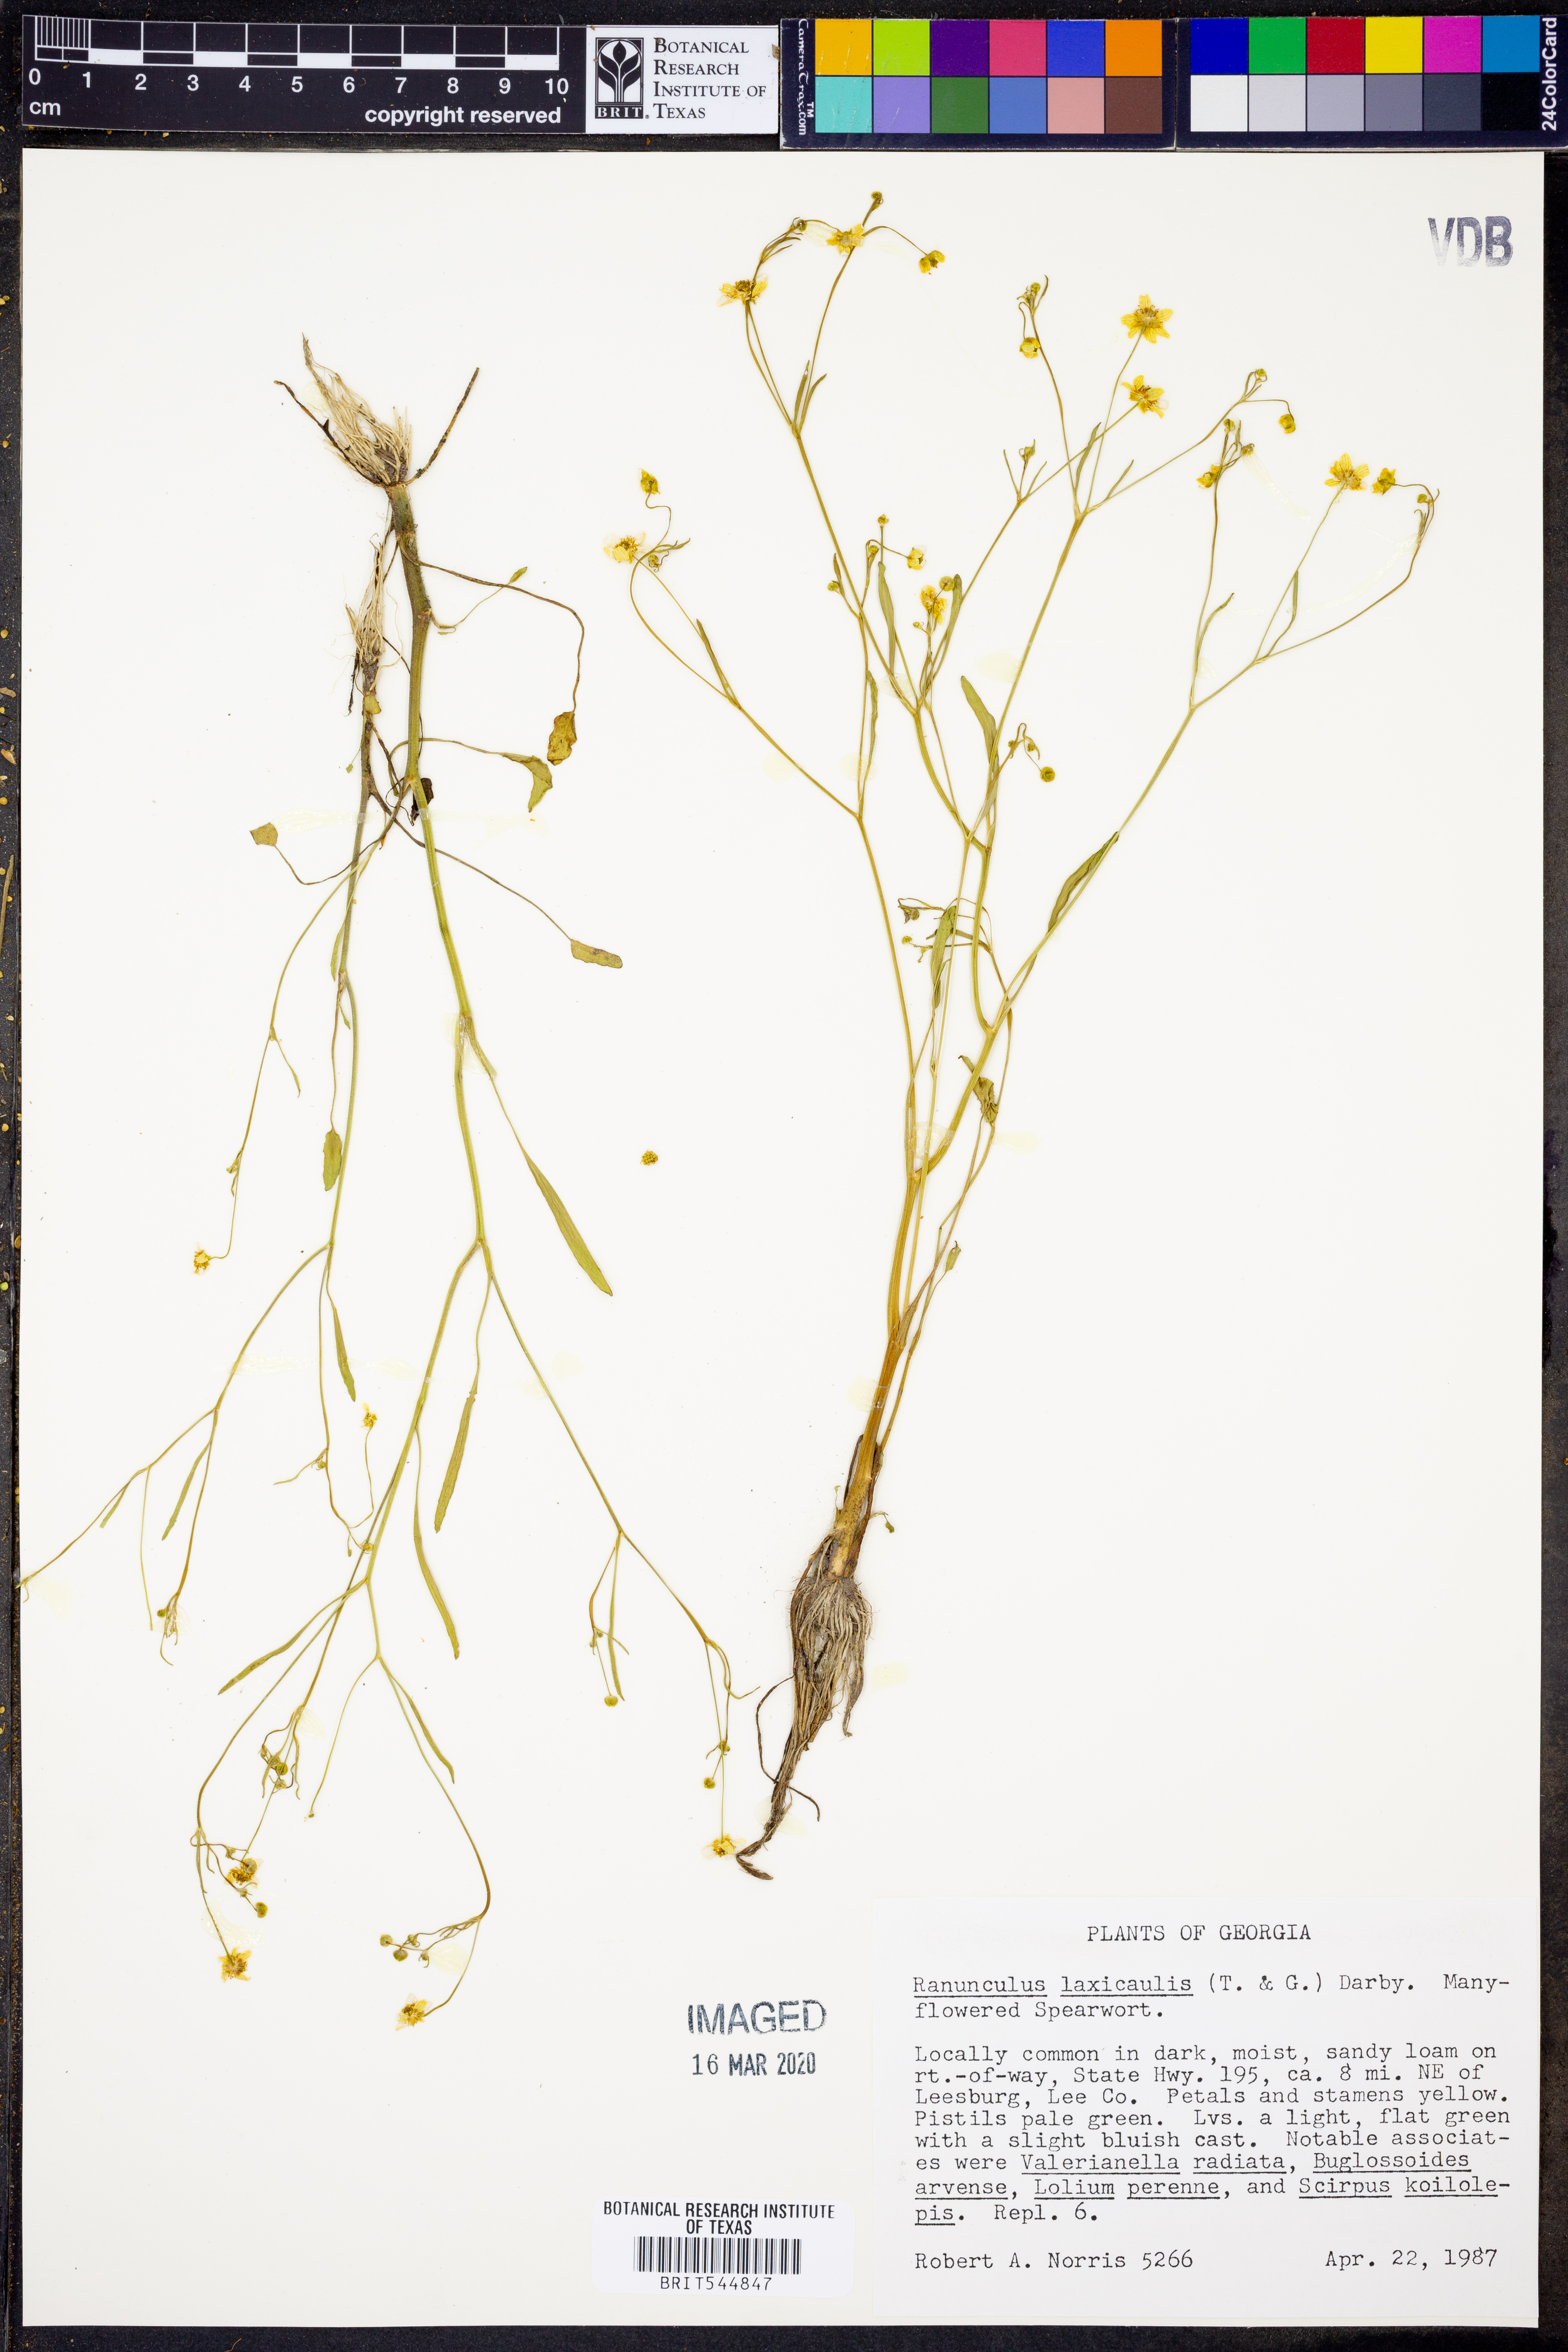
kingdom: Plantae
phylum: Tracheophyta
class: Magnoliopsida
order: Ranunculales
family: Ranunculaceae
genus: Ranunculus
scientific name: Ranunculus laxicaulis
